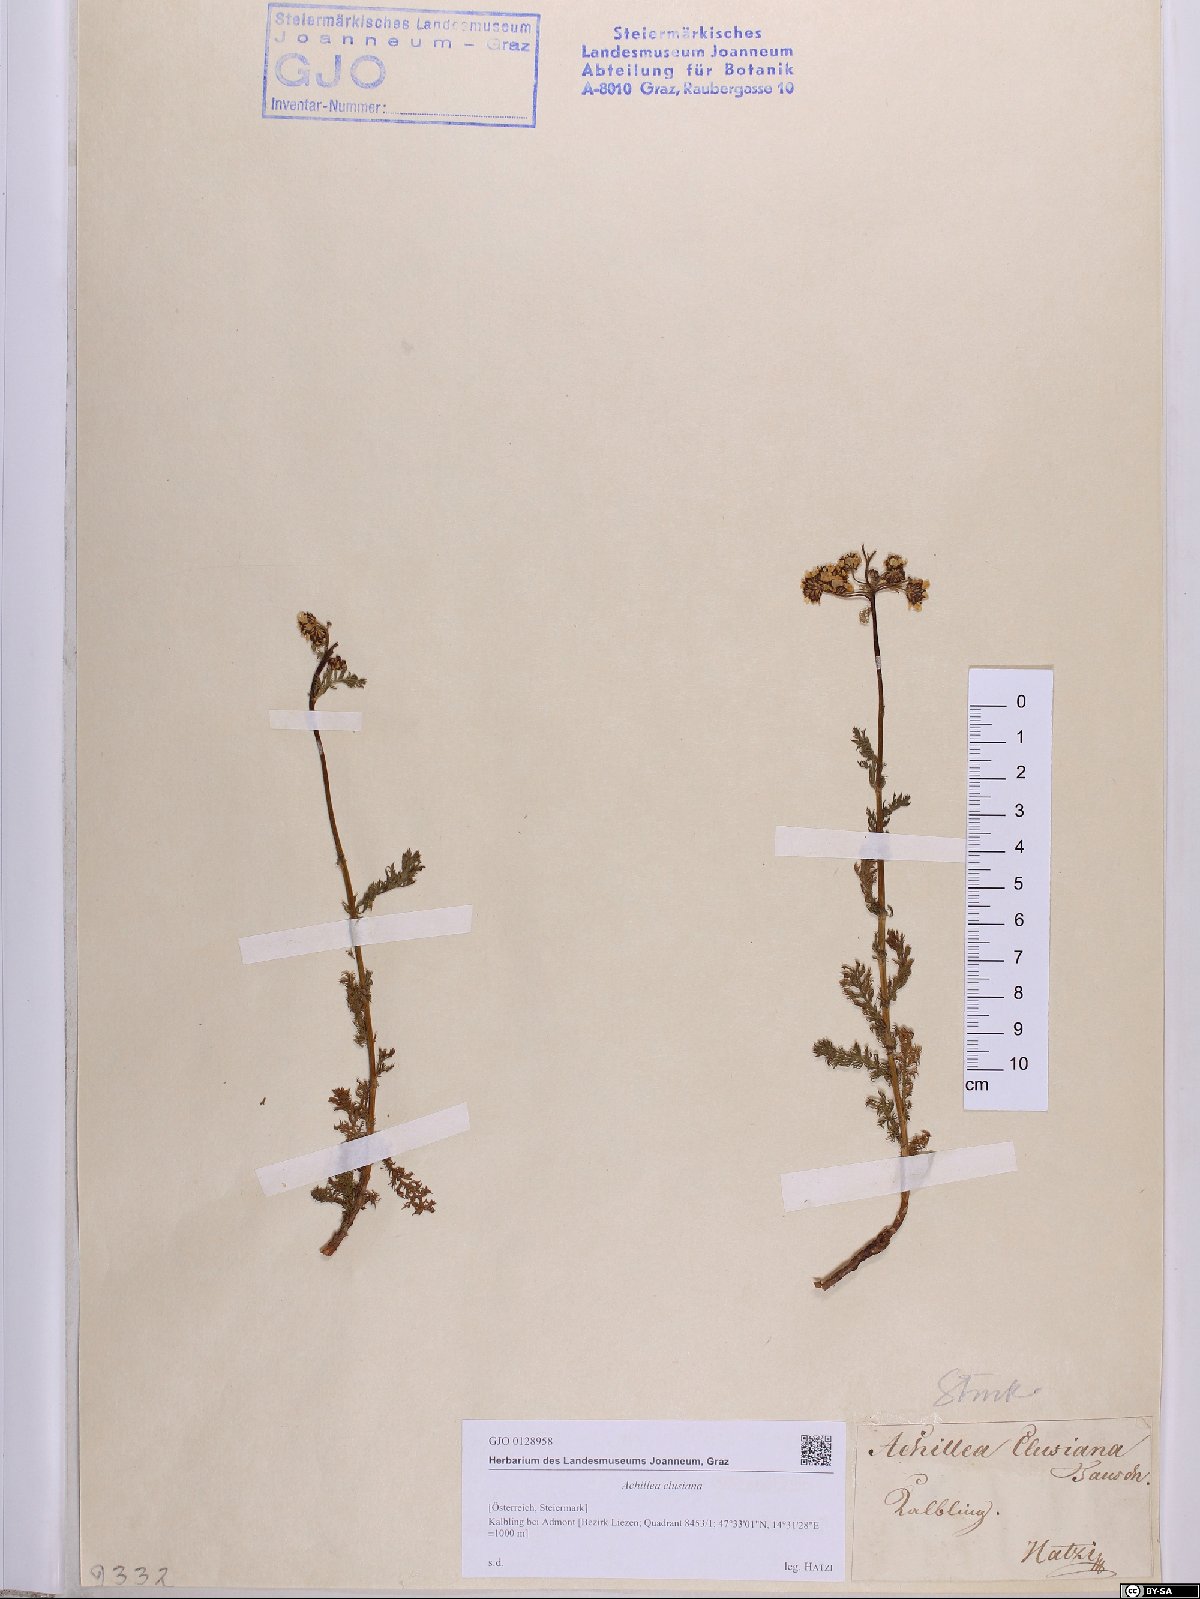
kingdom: Plantae
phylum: Tracheophyta
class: Magnoliopsida
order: Asterales
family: Asteraceae
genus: Achillea
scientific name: Achillea clusiana
